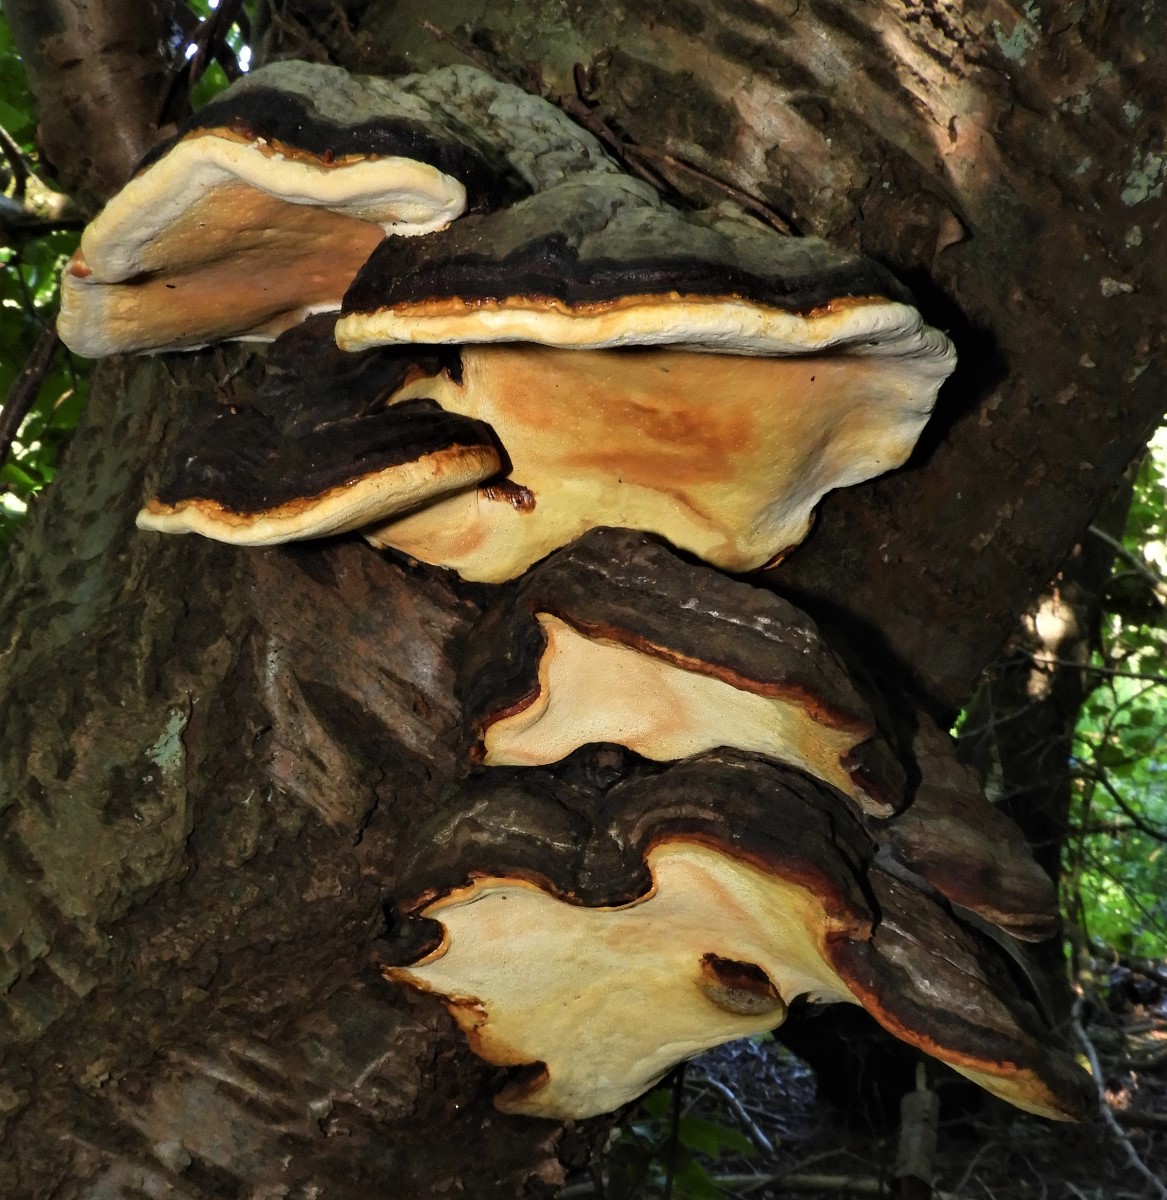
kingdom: Fungi
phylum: Basidiomycota
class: Agaricomycetes
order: Polyporales
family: Fomitopsidaceae
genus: Fomitopsis
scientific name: Fomitopsis pinicola
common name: randbæltet hovporesvamp
